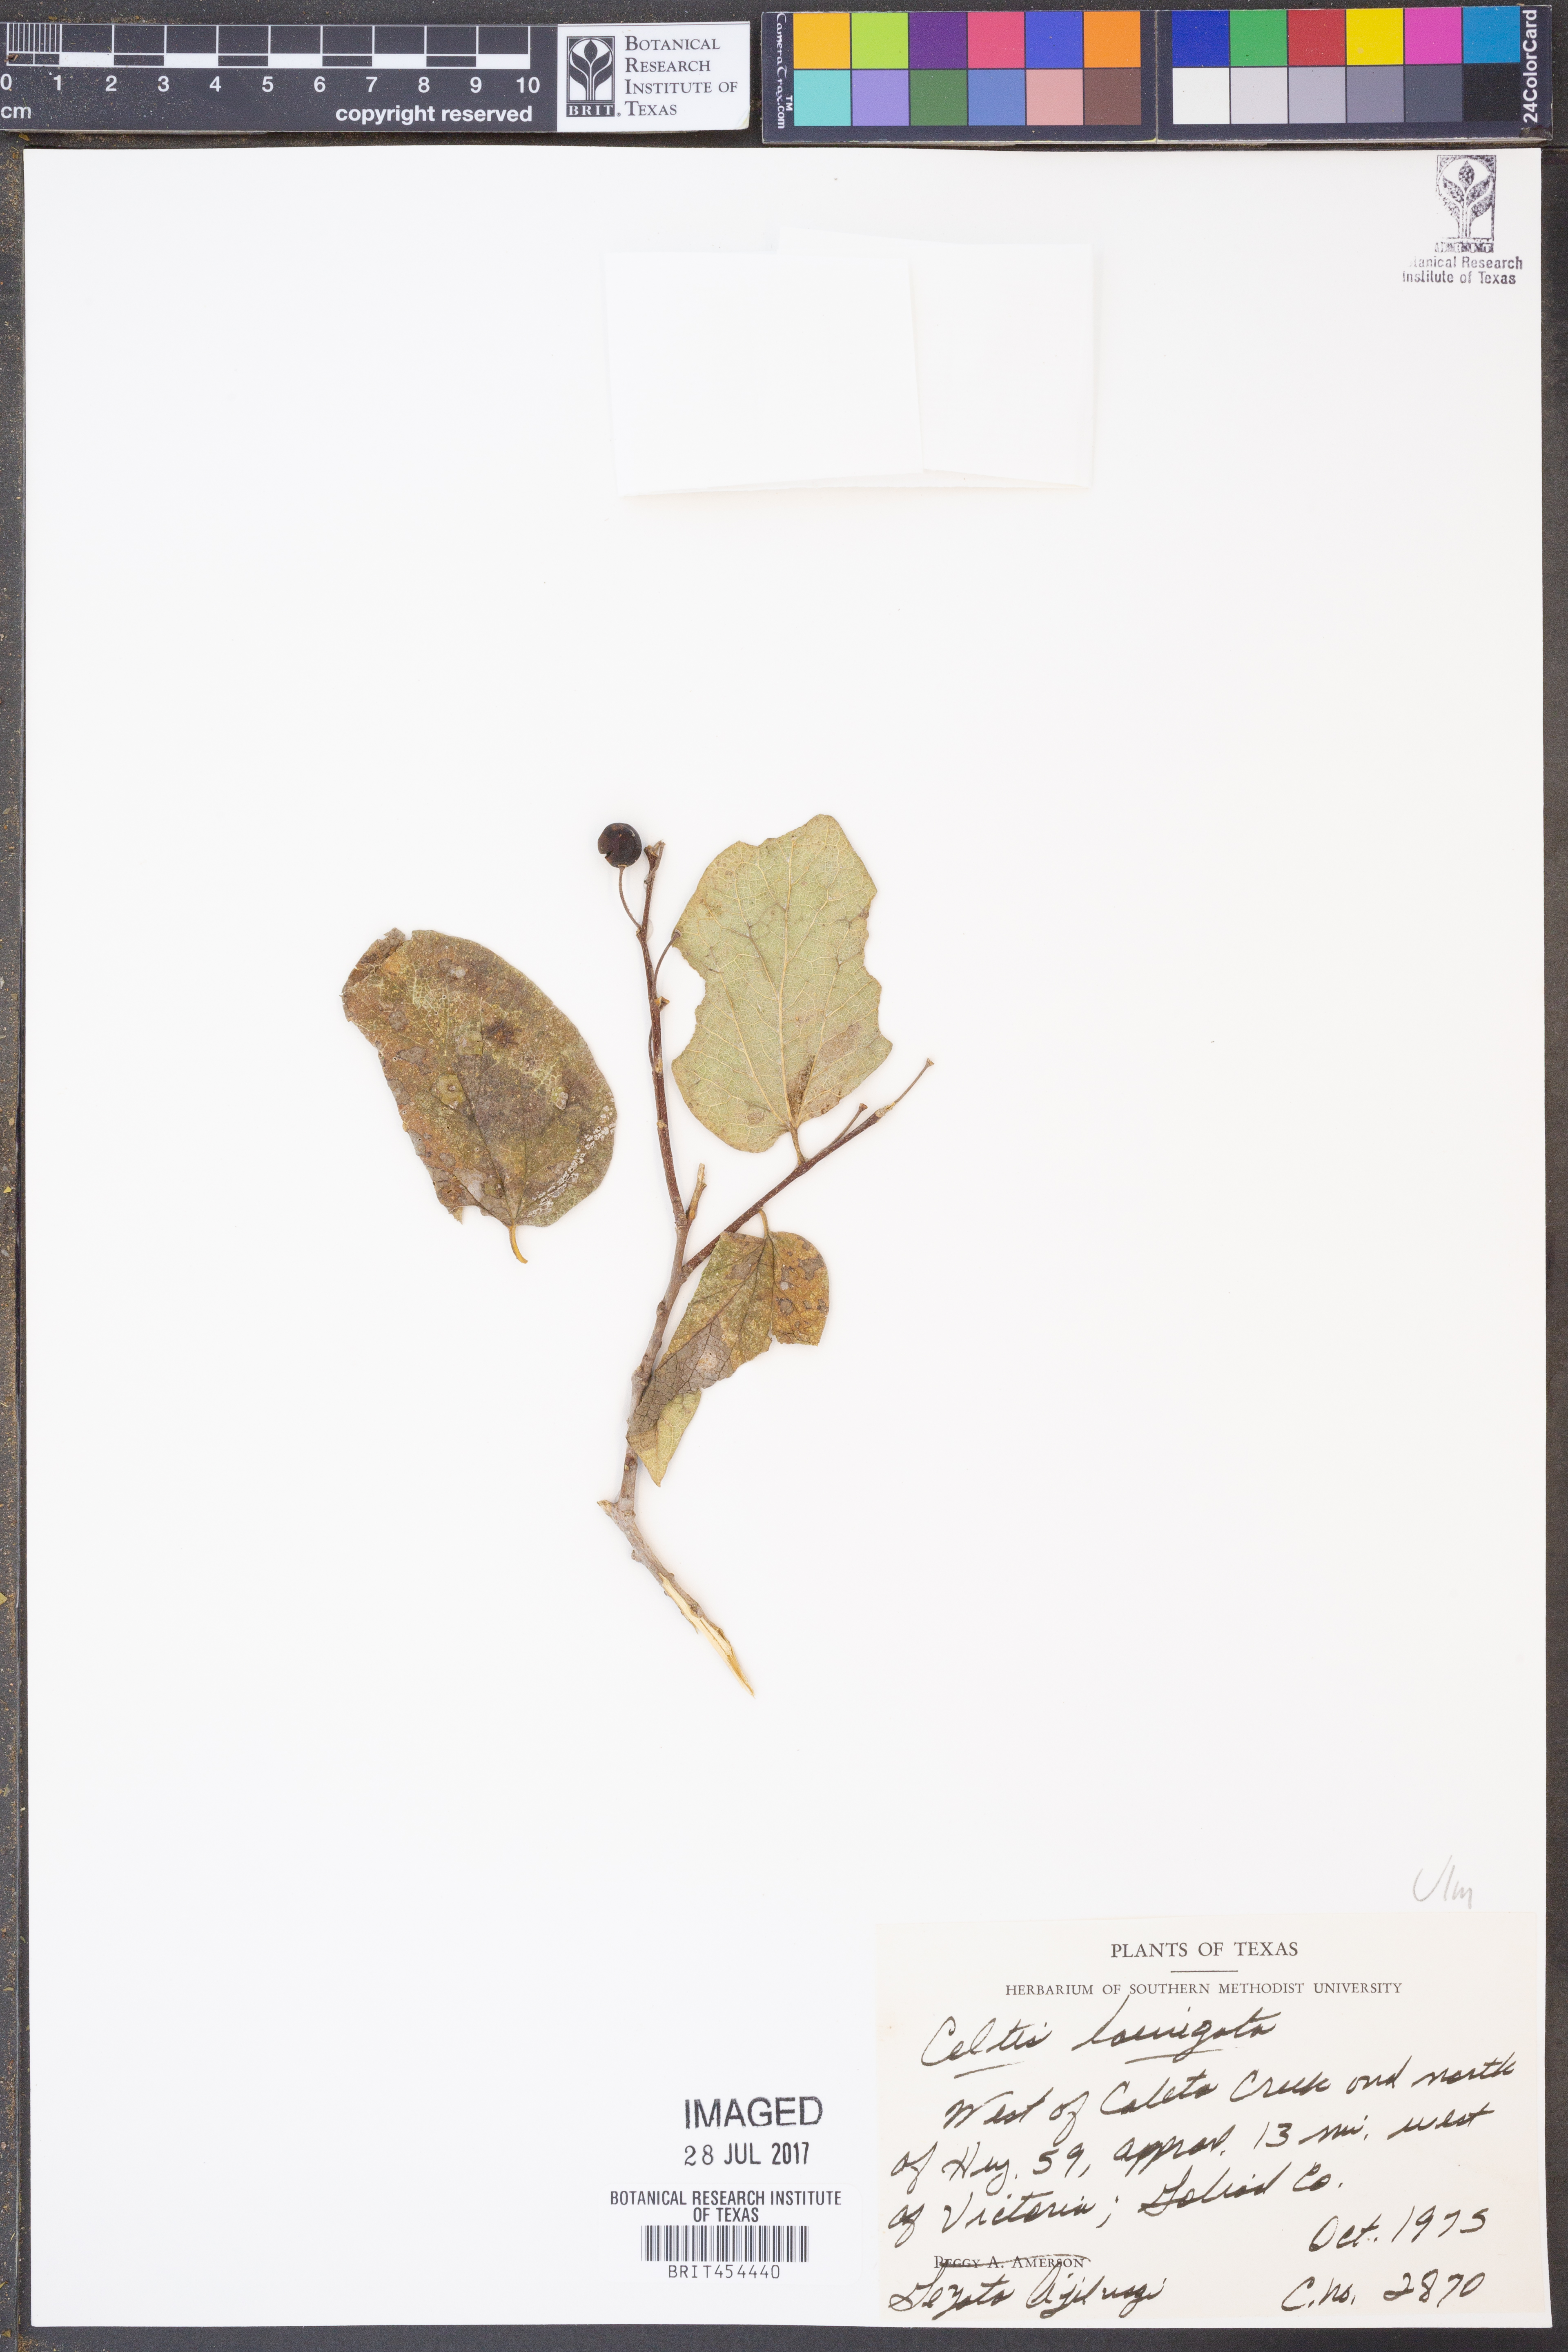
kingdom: Plantae
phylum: Tracheophyta
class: Magnoliopsida
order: Rosales
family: Cannabaceae
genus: Celtis
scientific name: Celtis laevigata
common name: Sugarberry
